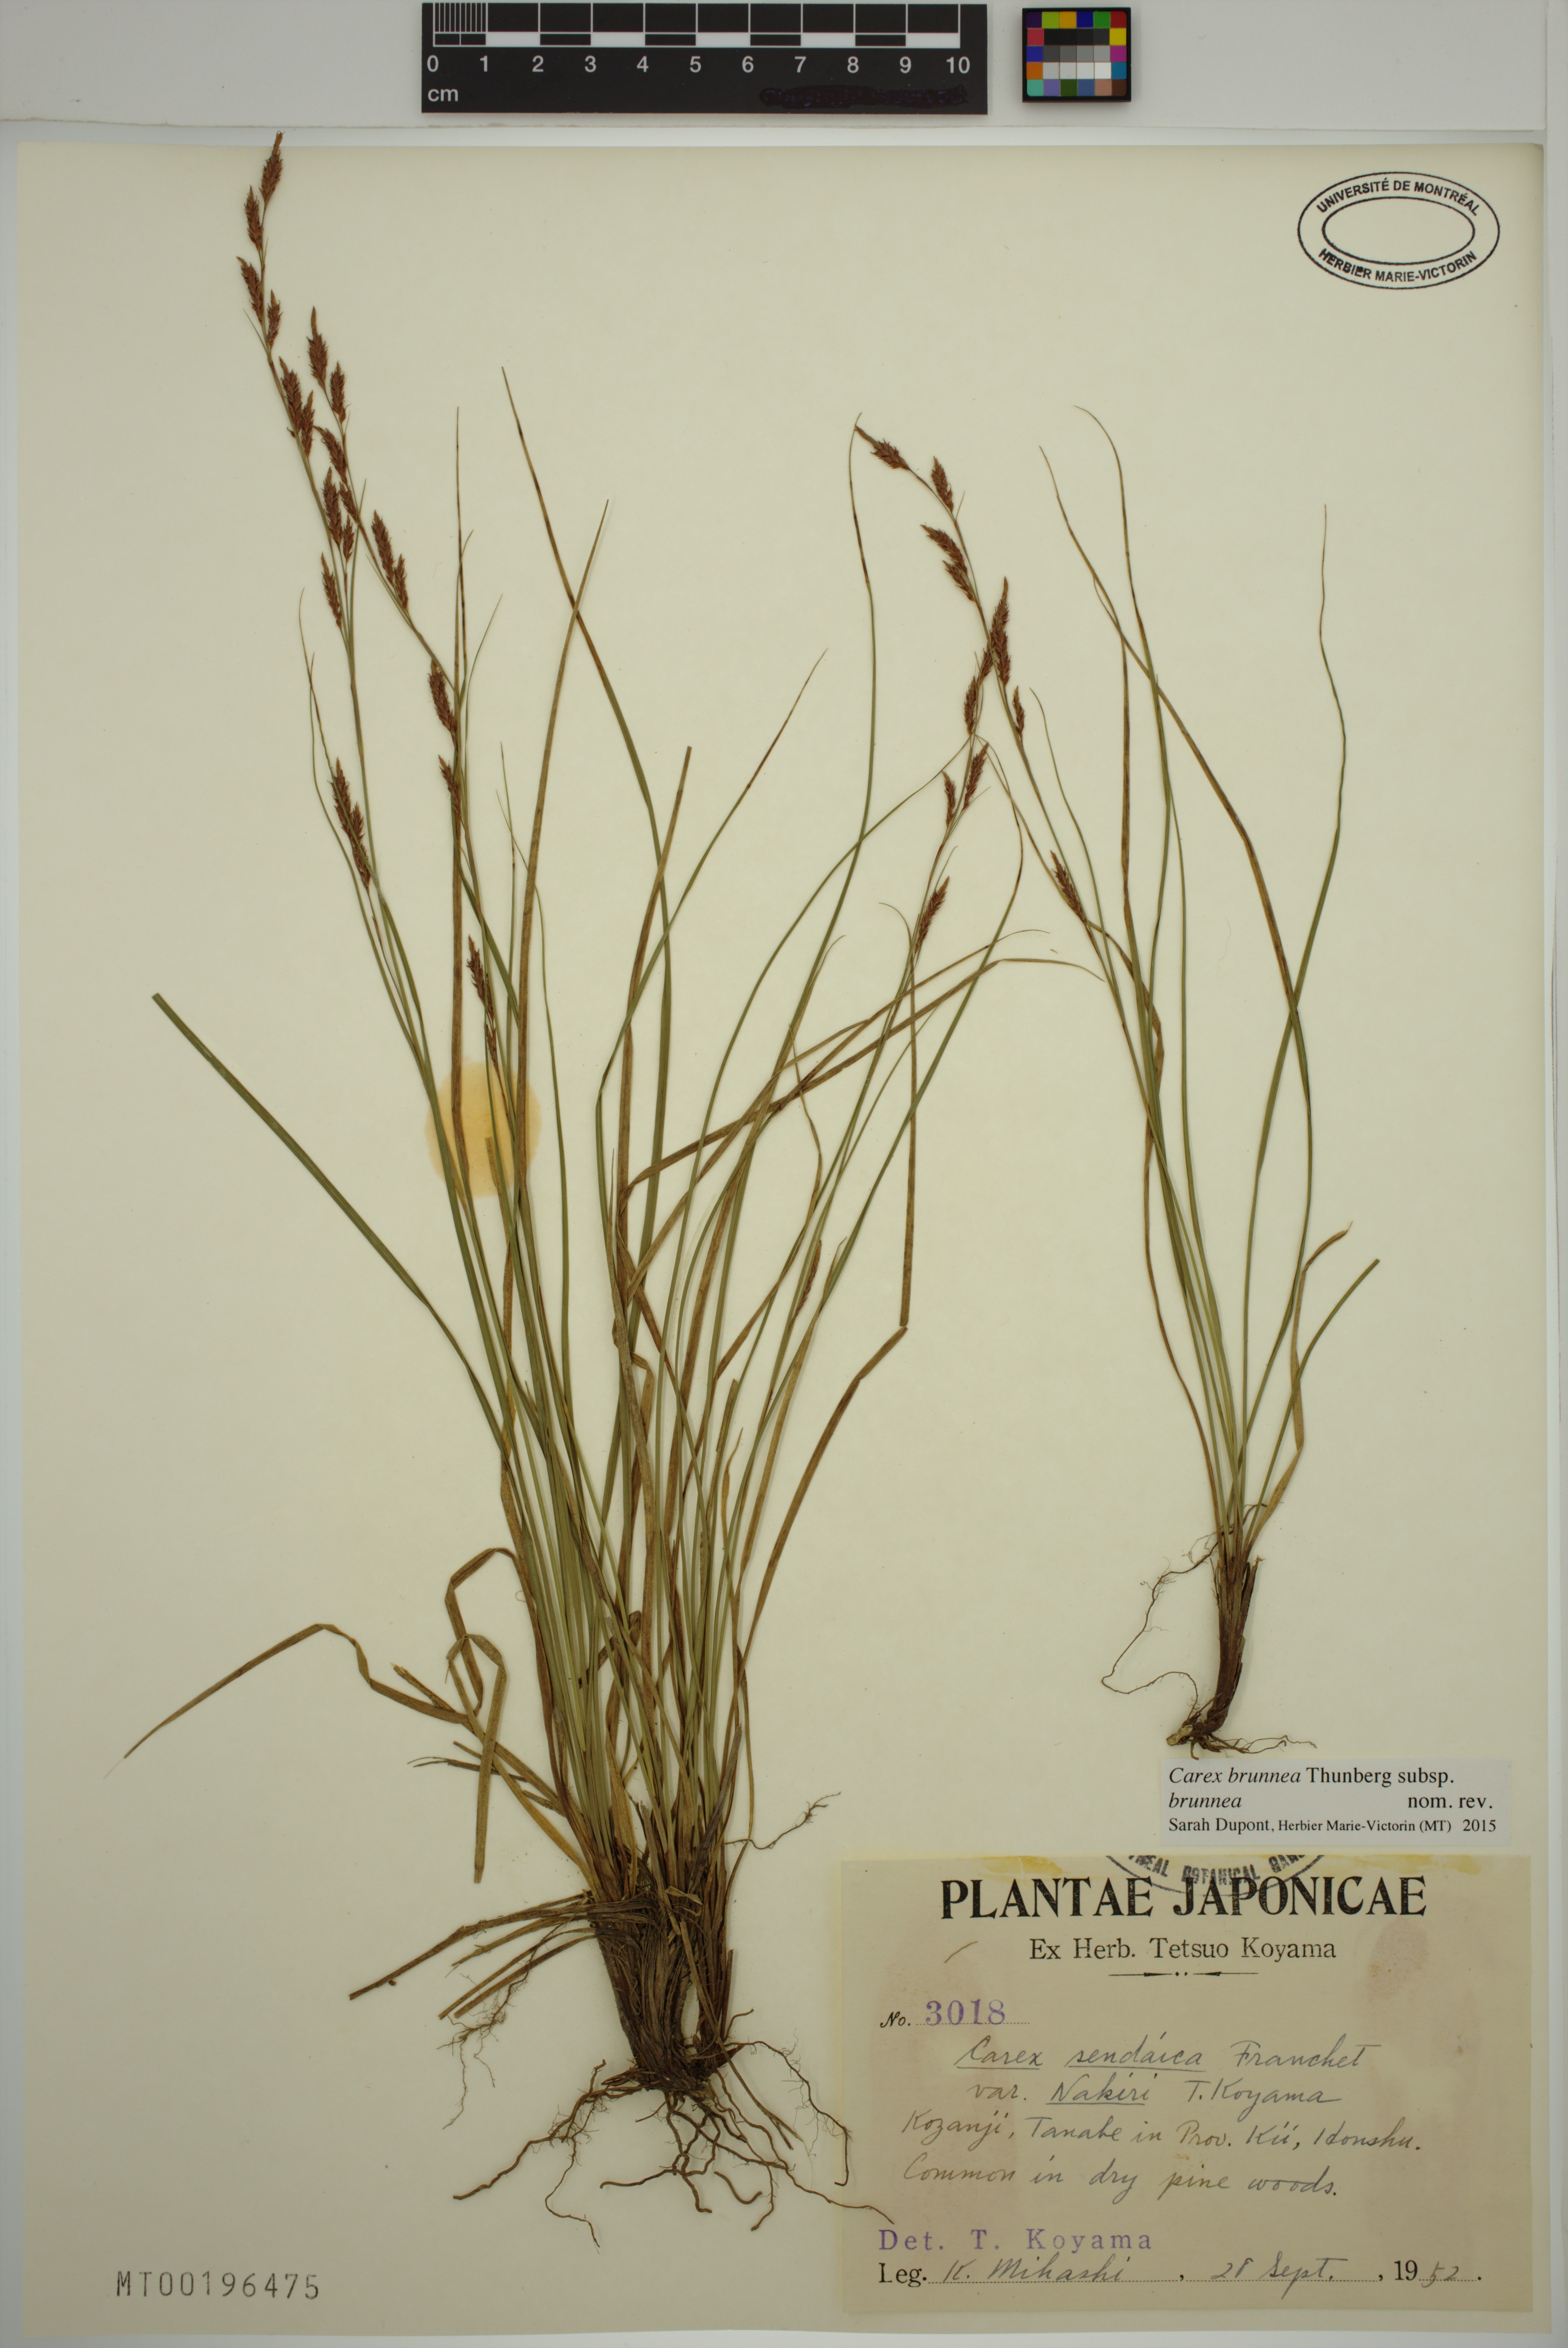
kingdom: Plantae
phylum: Tracheophyta
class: Liliopsida
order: Poales
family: Cyperaceae
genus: Carex
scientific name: Carex brunnea
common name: Greater brown sedge
